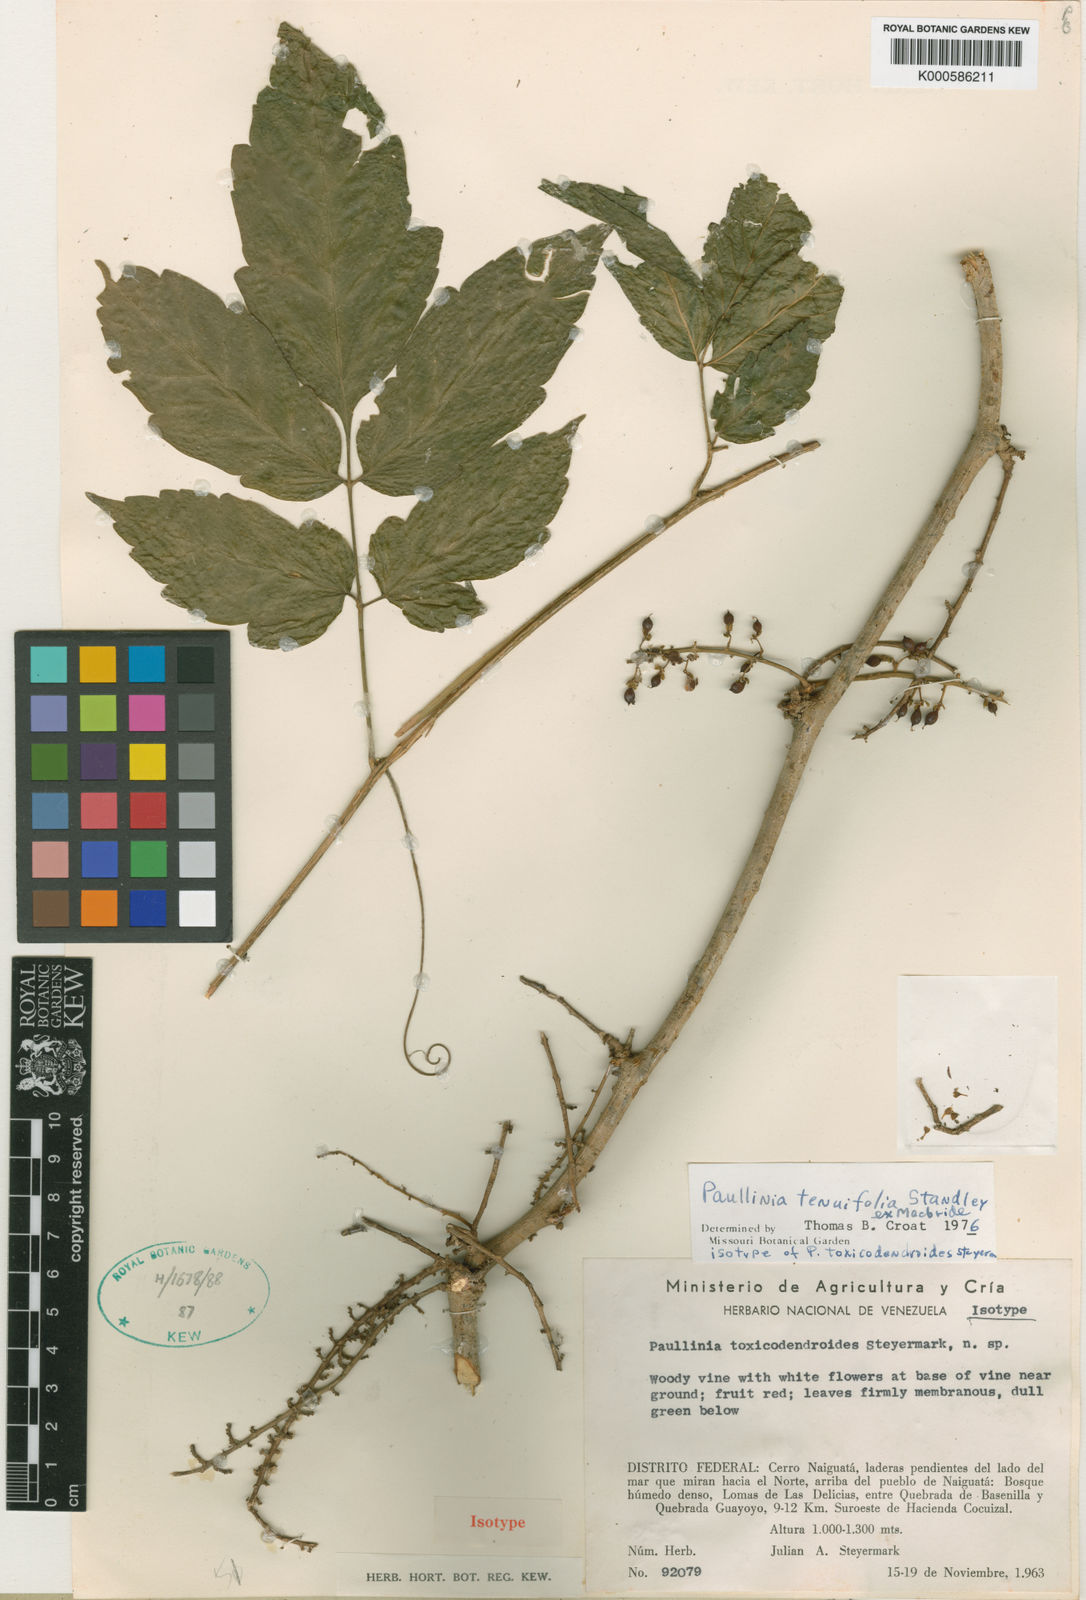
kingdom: Plantae
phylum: Tracheophyta
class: Magnoliopsida
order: Sapindales
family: Sapindaceae
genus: Paullinia
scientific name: Paullinia tenuifolia
